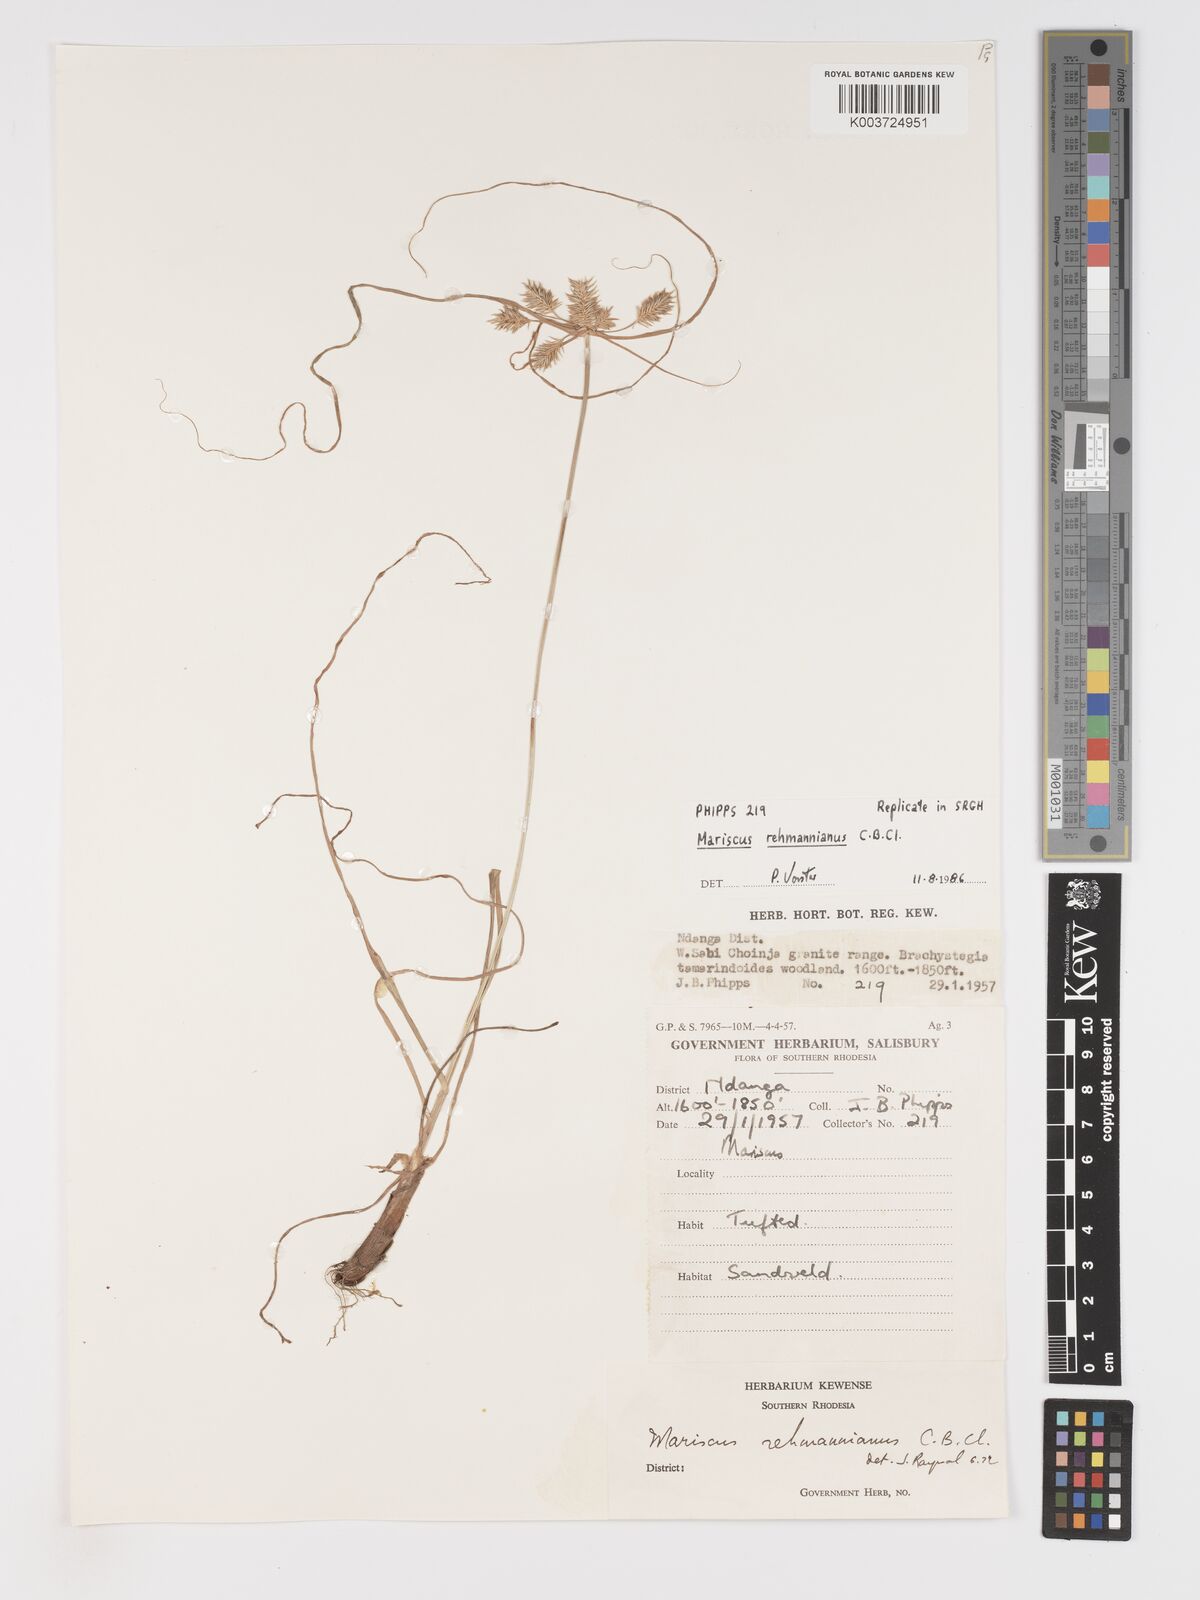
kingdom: Plantae
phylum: Tracheophyta
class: Liliopsida
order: Poales
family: Cyperaceae
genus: Cyperus
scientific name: Cyperus indecorus
